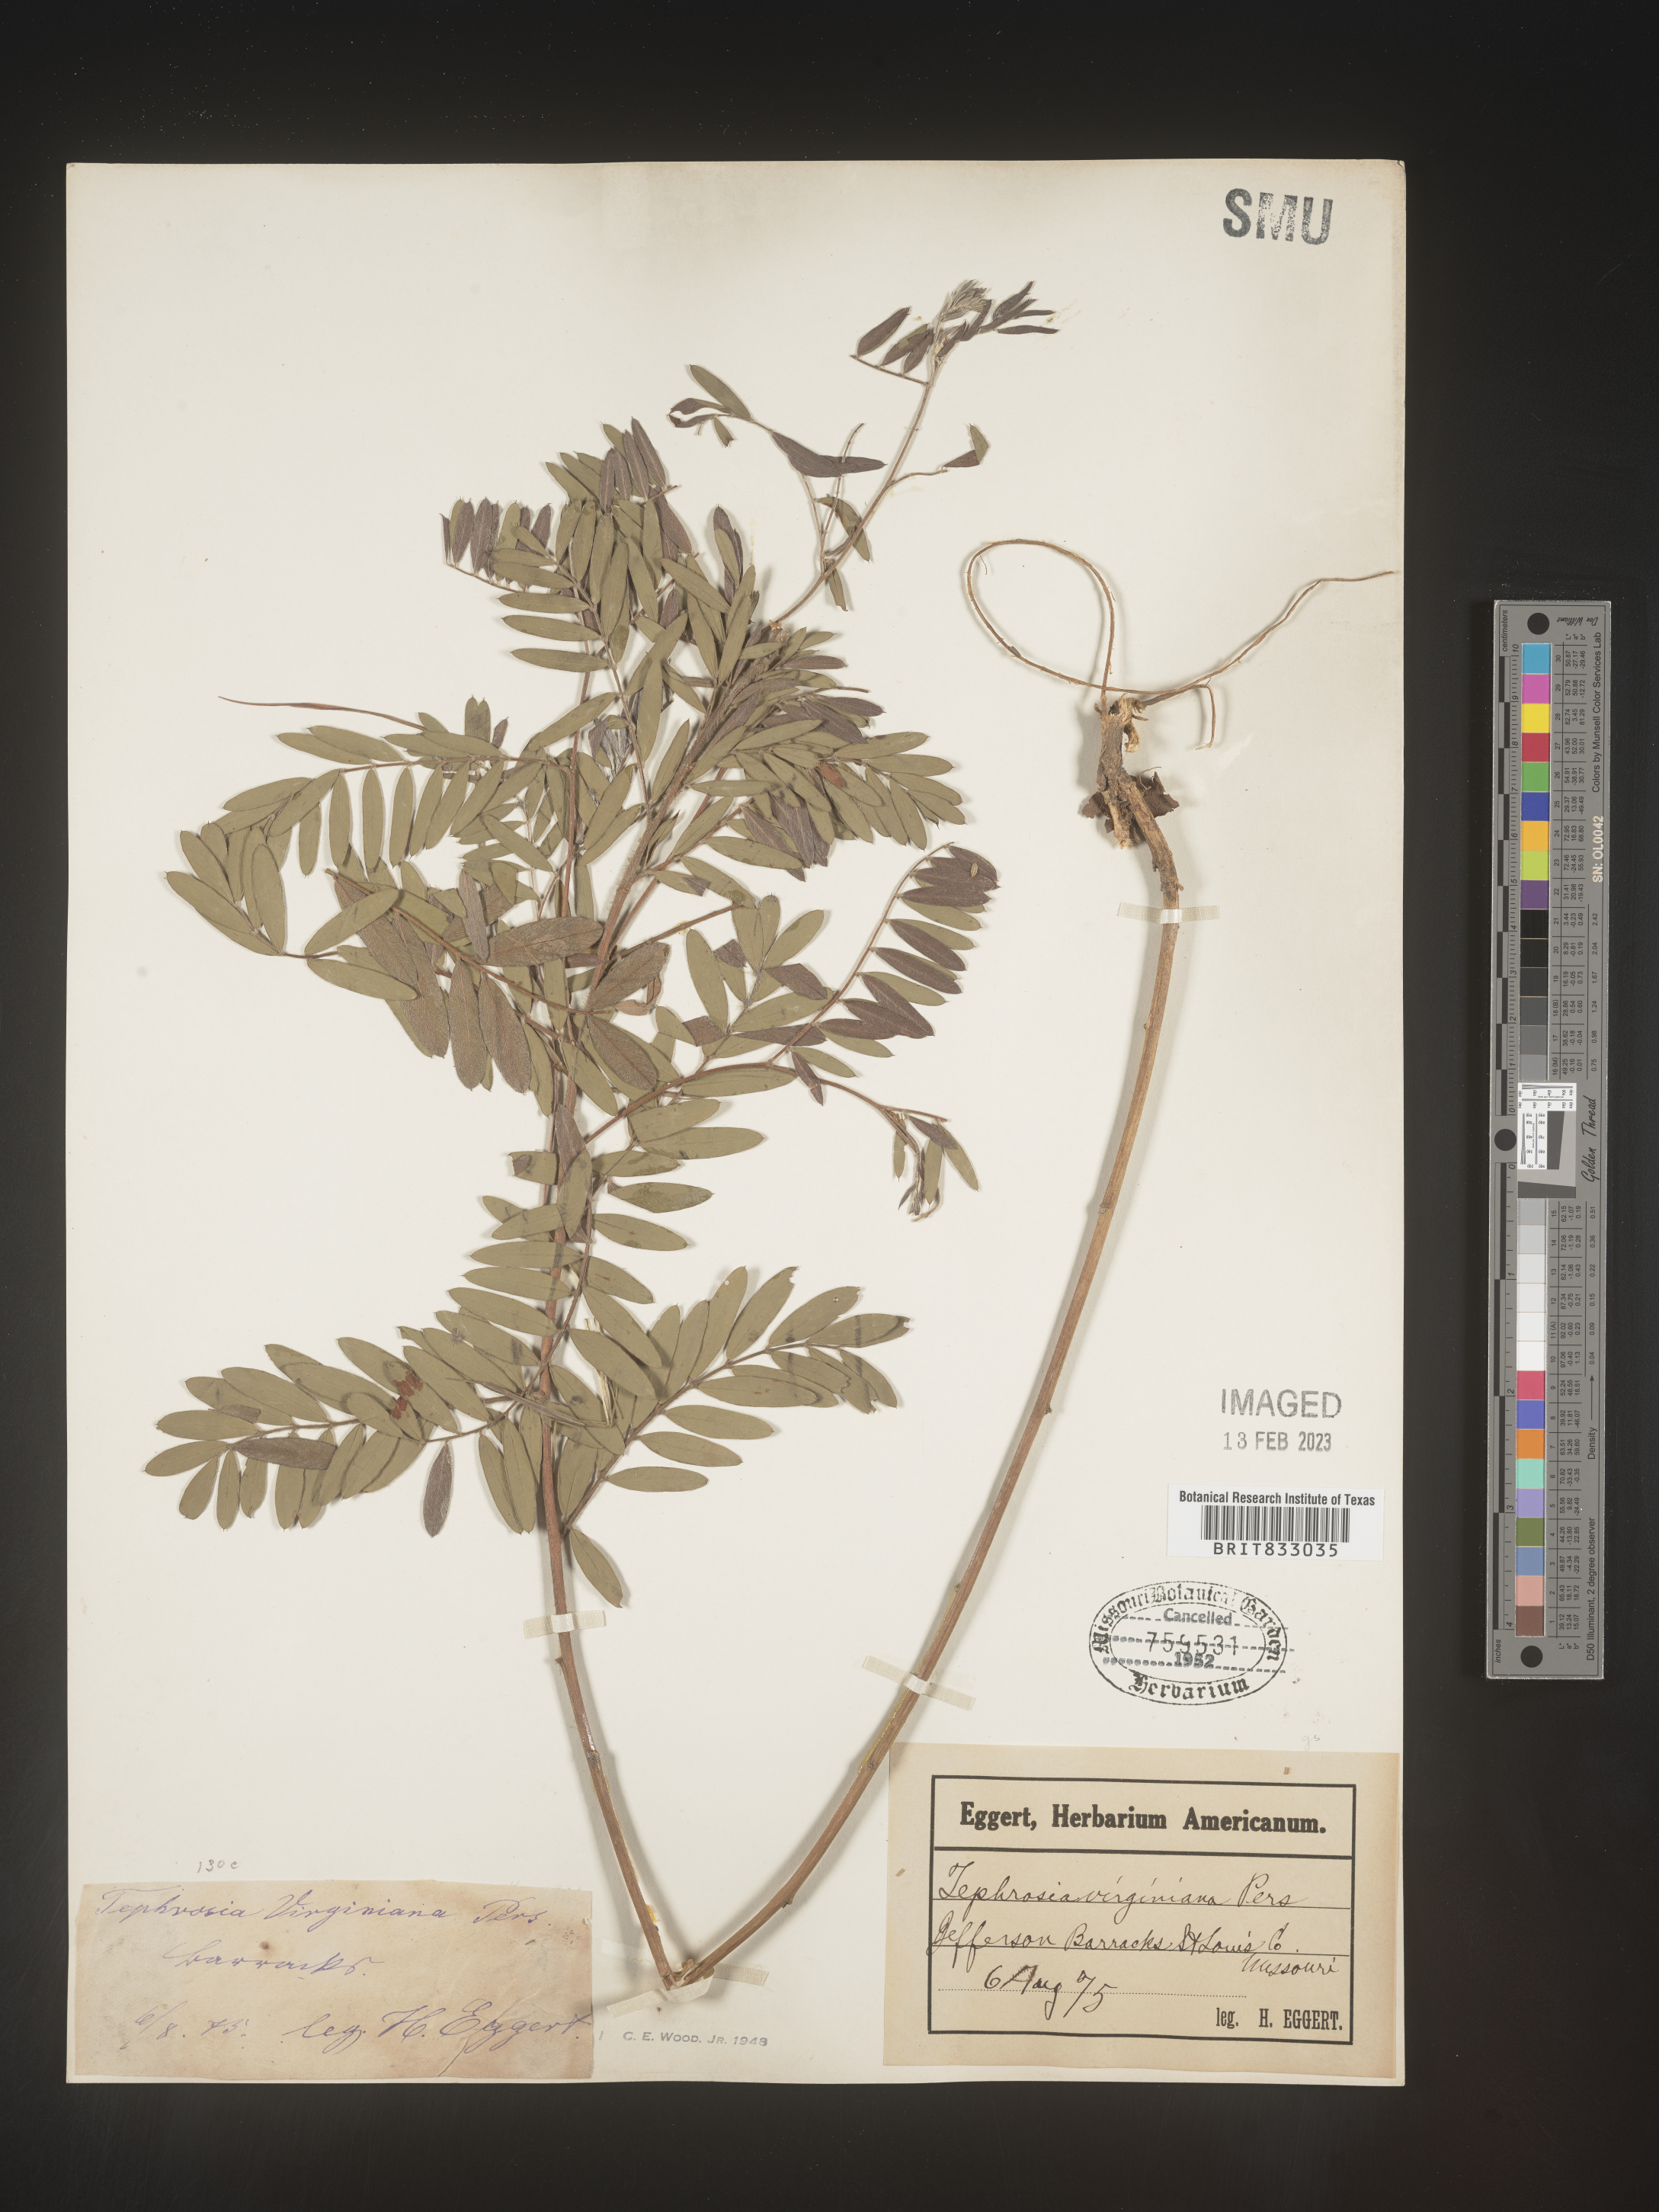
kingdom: Plantae
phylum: Tracheophyta
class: Magnoliopsida
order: Fabales
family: Fabaceae
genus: Tephrosia
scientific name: Tephrosia virginiana
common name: Rabbit-pea
